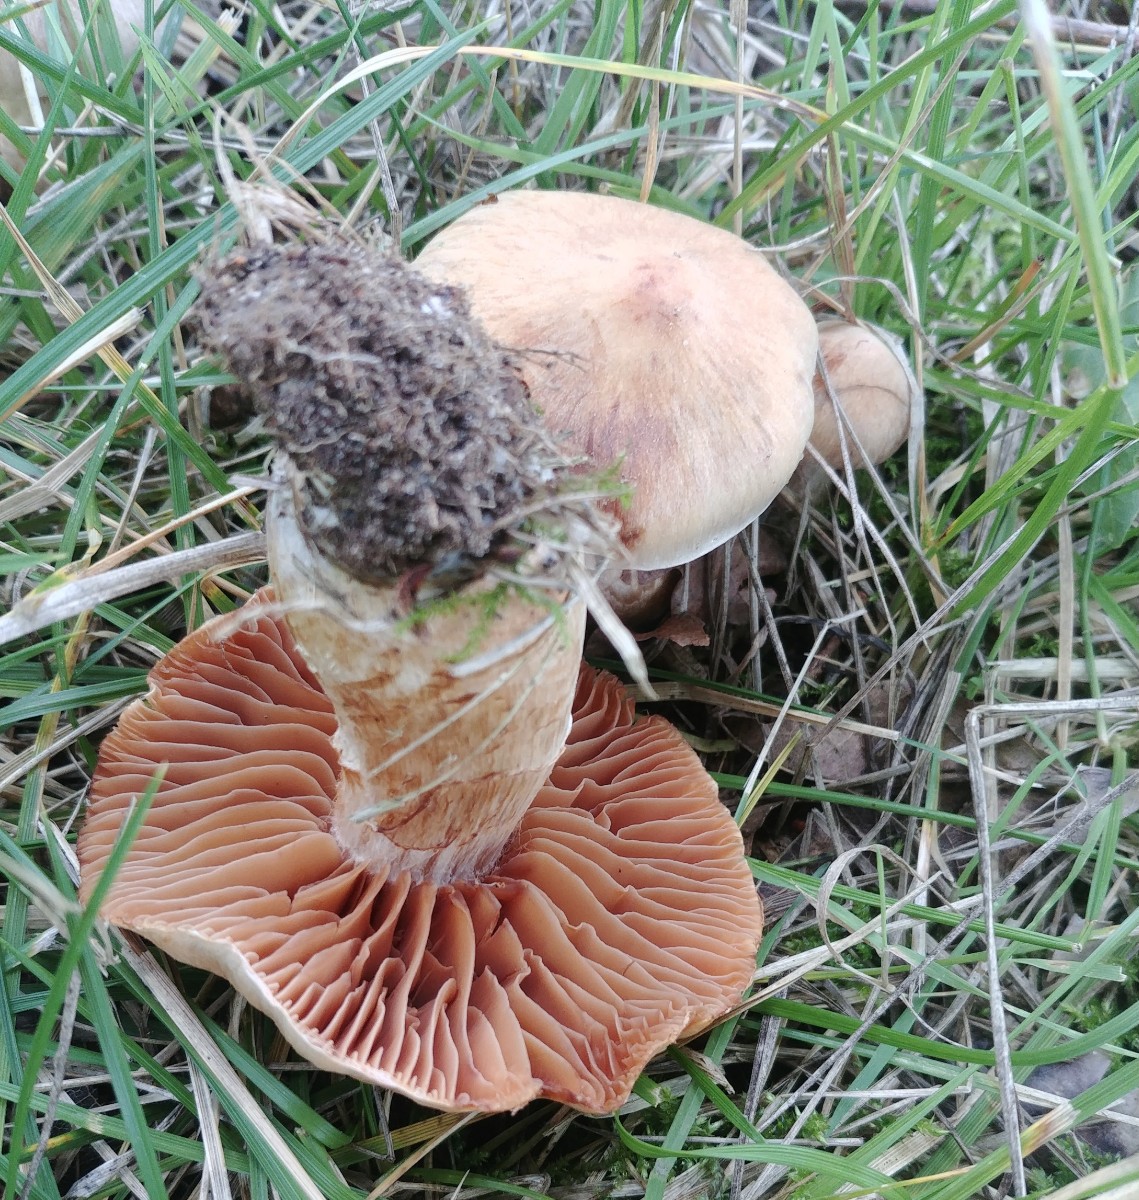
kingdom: Fungi
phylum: Basidiomycota
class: Agaricomycetes
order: Agaricales
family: Cortinariaceae
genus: Cortinarius
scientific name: Cortinarius
